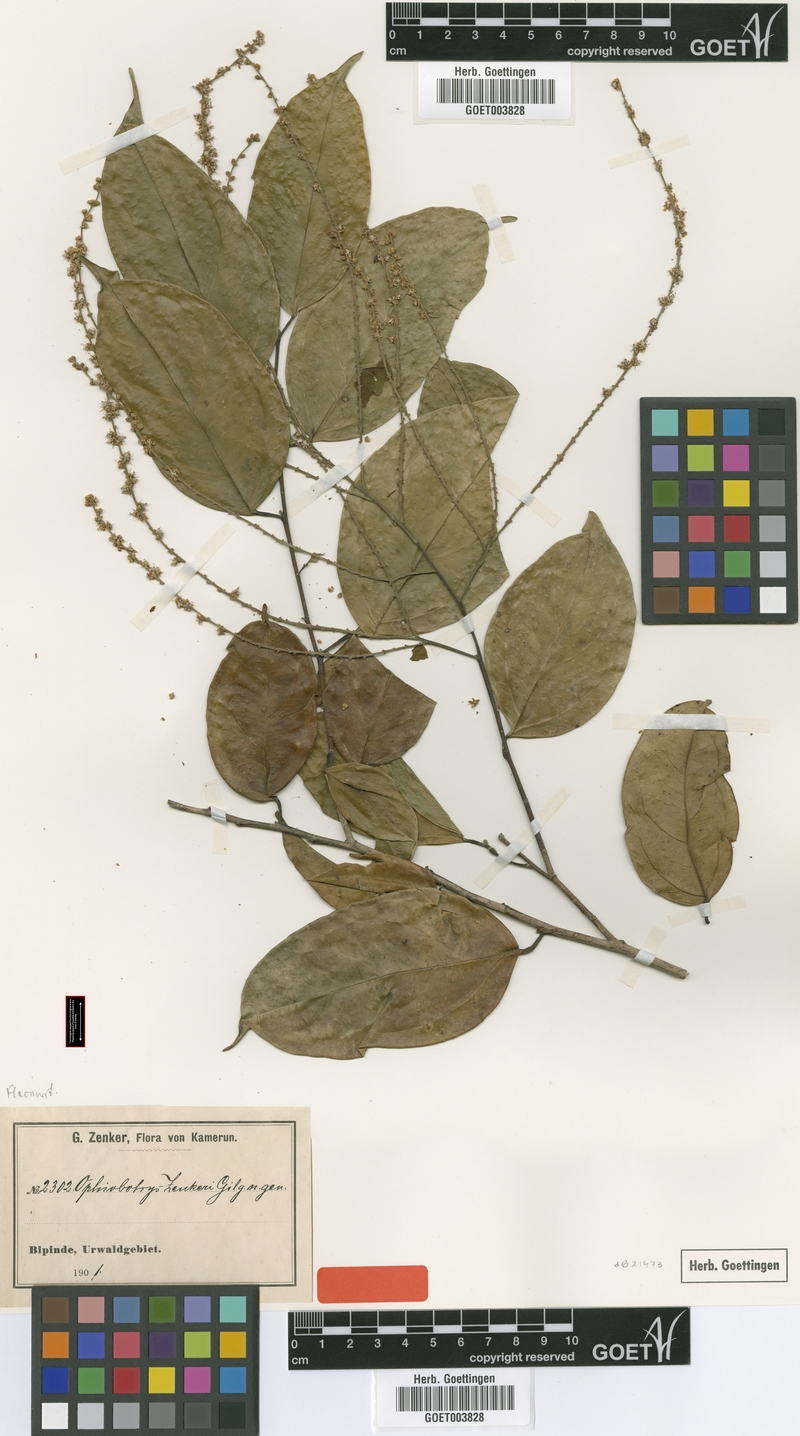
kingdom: Plantae
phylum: Tracheophyta
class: Magnoliopsida
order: Malpighiales
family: Salicaceae
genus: Ophiobotrys
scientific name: Ophiobotrys zenkeri
